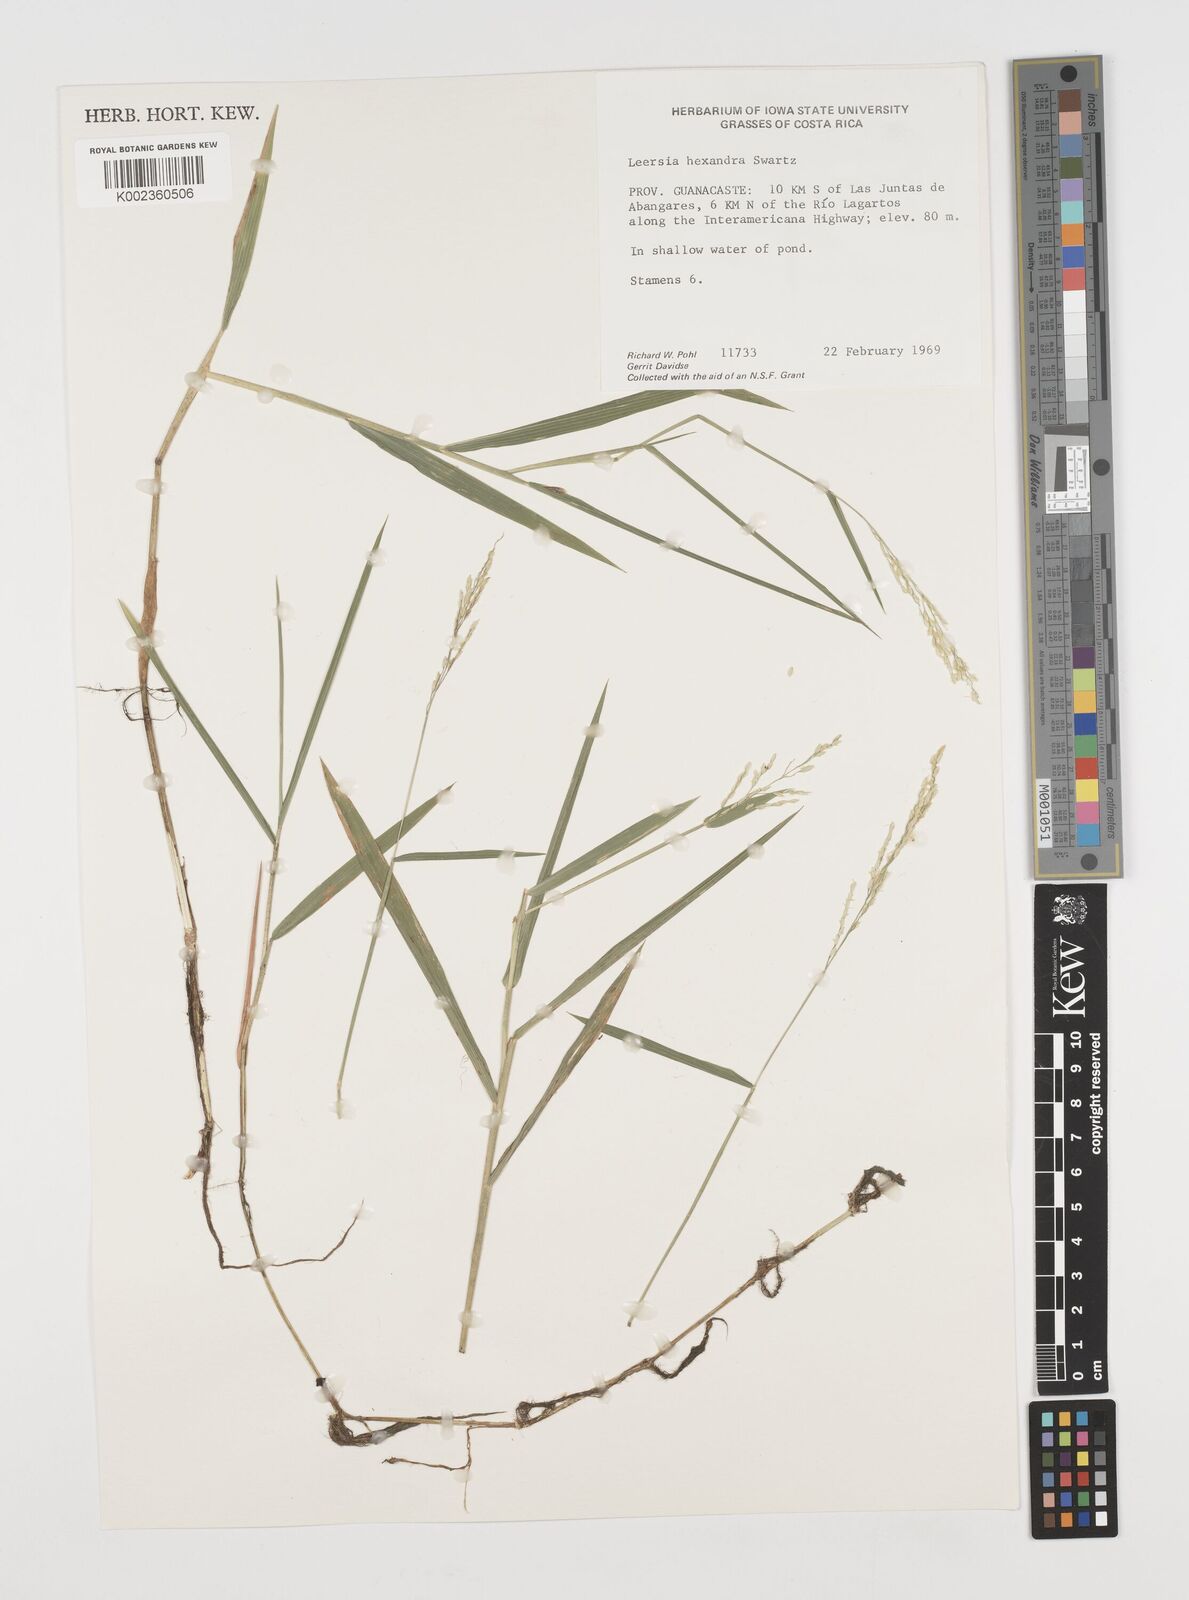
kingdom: Plantae
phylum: Tracheophyta
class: Liliopsida
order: Poales
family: Poaceae
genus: Leersia
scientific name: Leersia hexandra
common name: Southern cut grass
